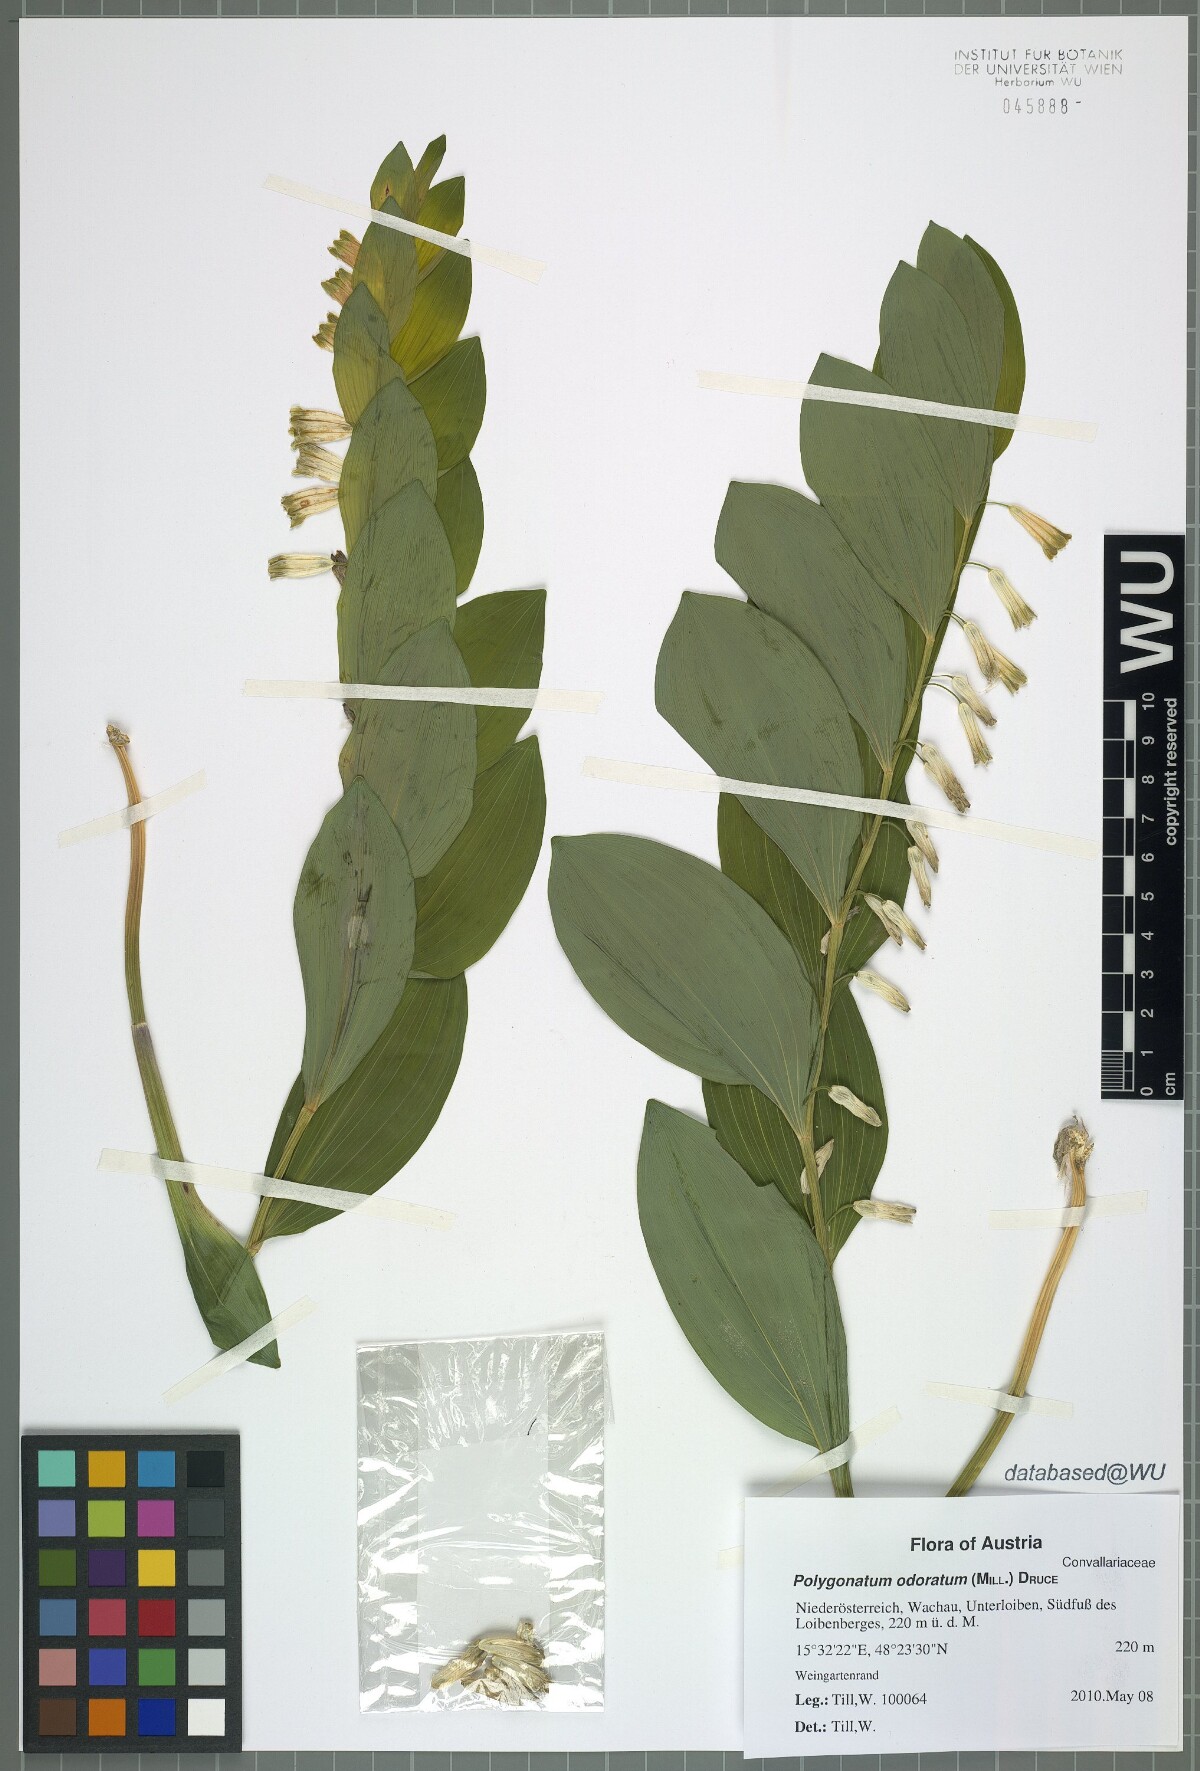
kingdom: Plantae
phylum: Tracheophyta
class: Liliopsida
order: Asparagales
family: Asparagaceae
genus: Polygonatum
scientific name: Polygonatum odoratum
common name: Angular solomon's-seal
